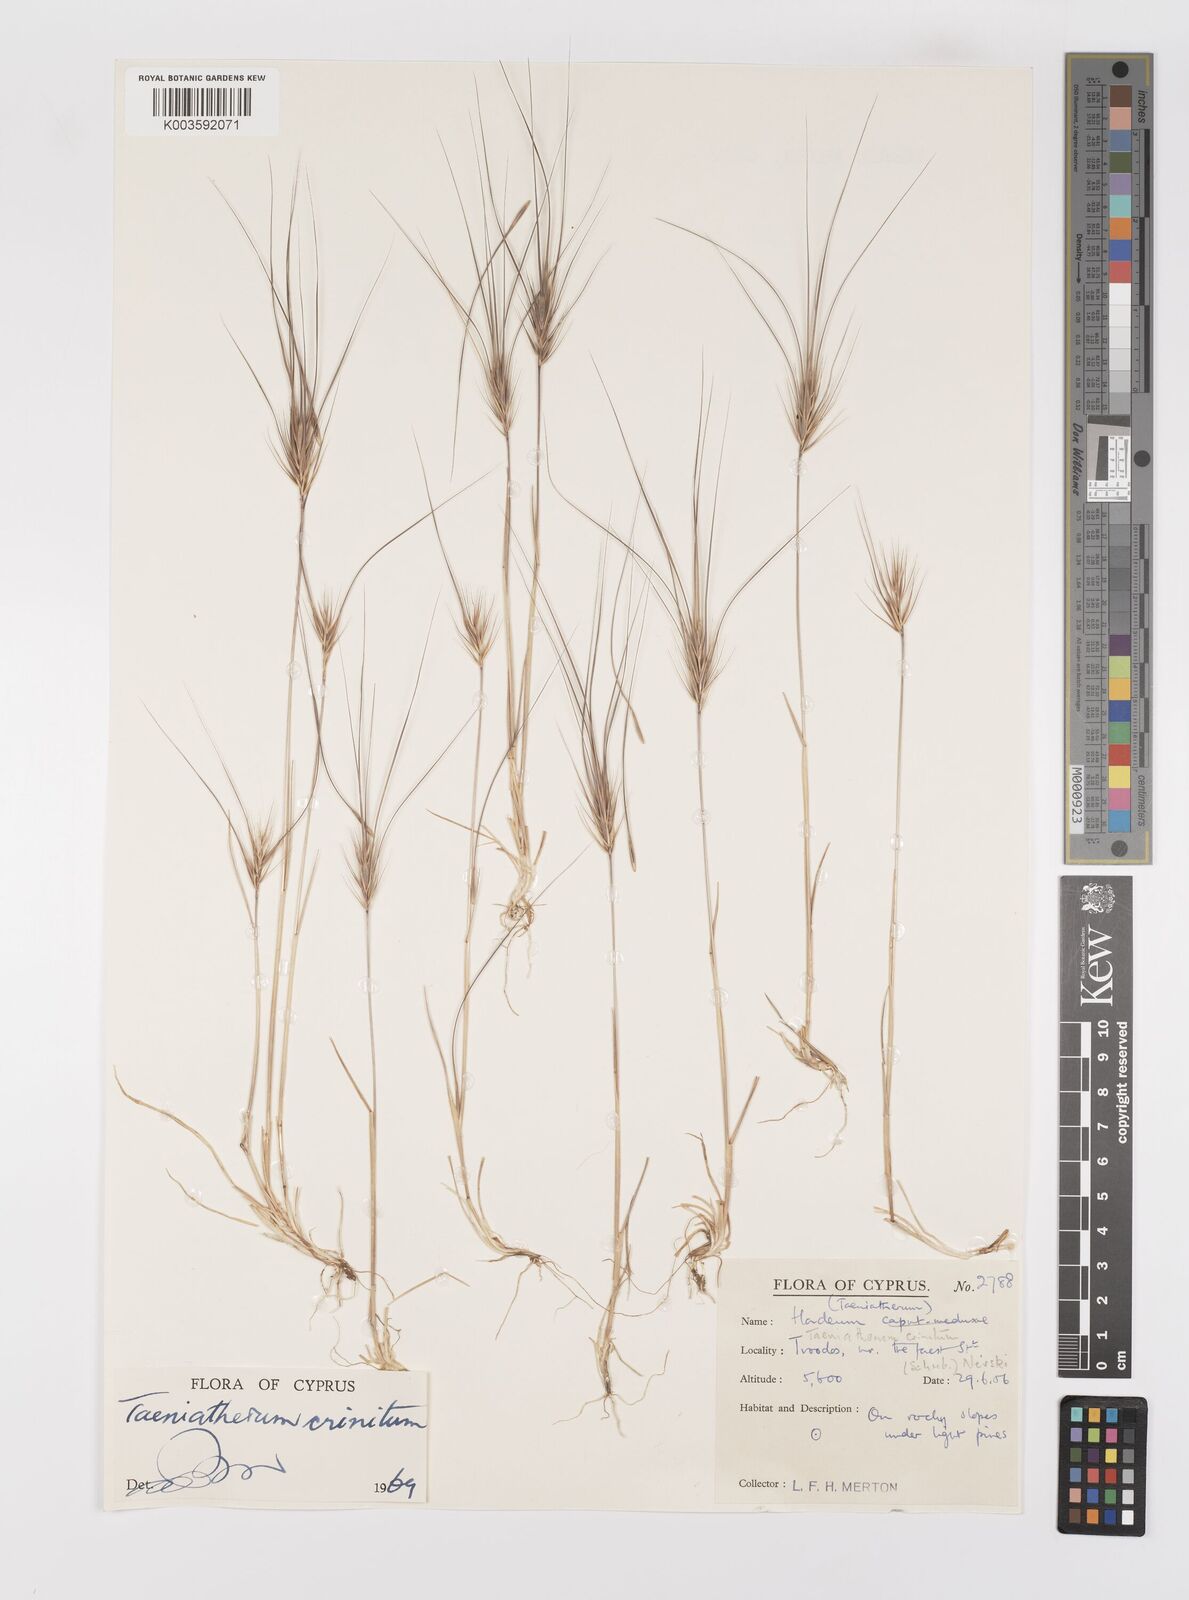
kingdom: Plantae
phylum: Tracheophyta
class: Liliopsida
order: Poales
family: Poaceae
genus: Taeniatherum
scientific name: Taeniatherum caput-medusae
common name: Medusahead
